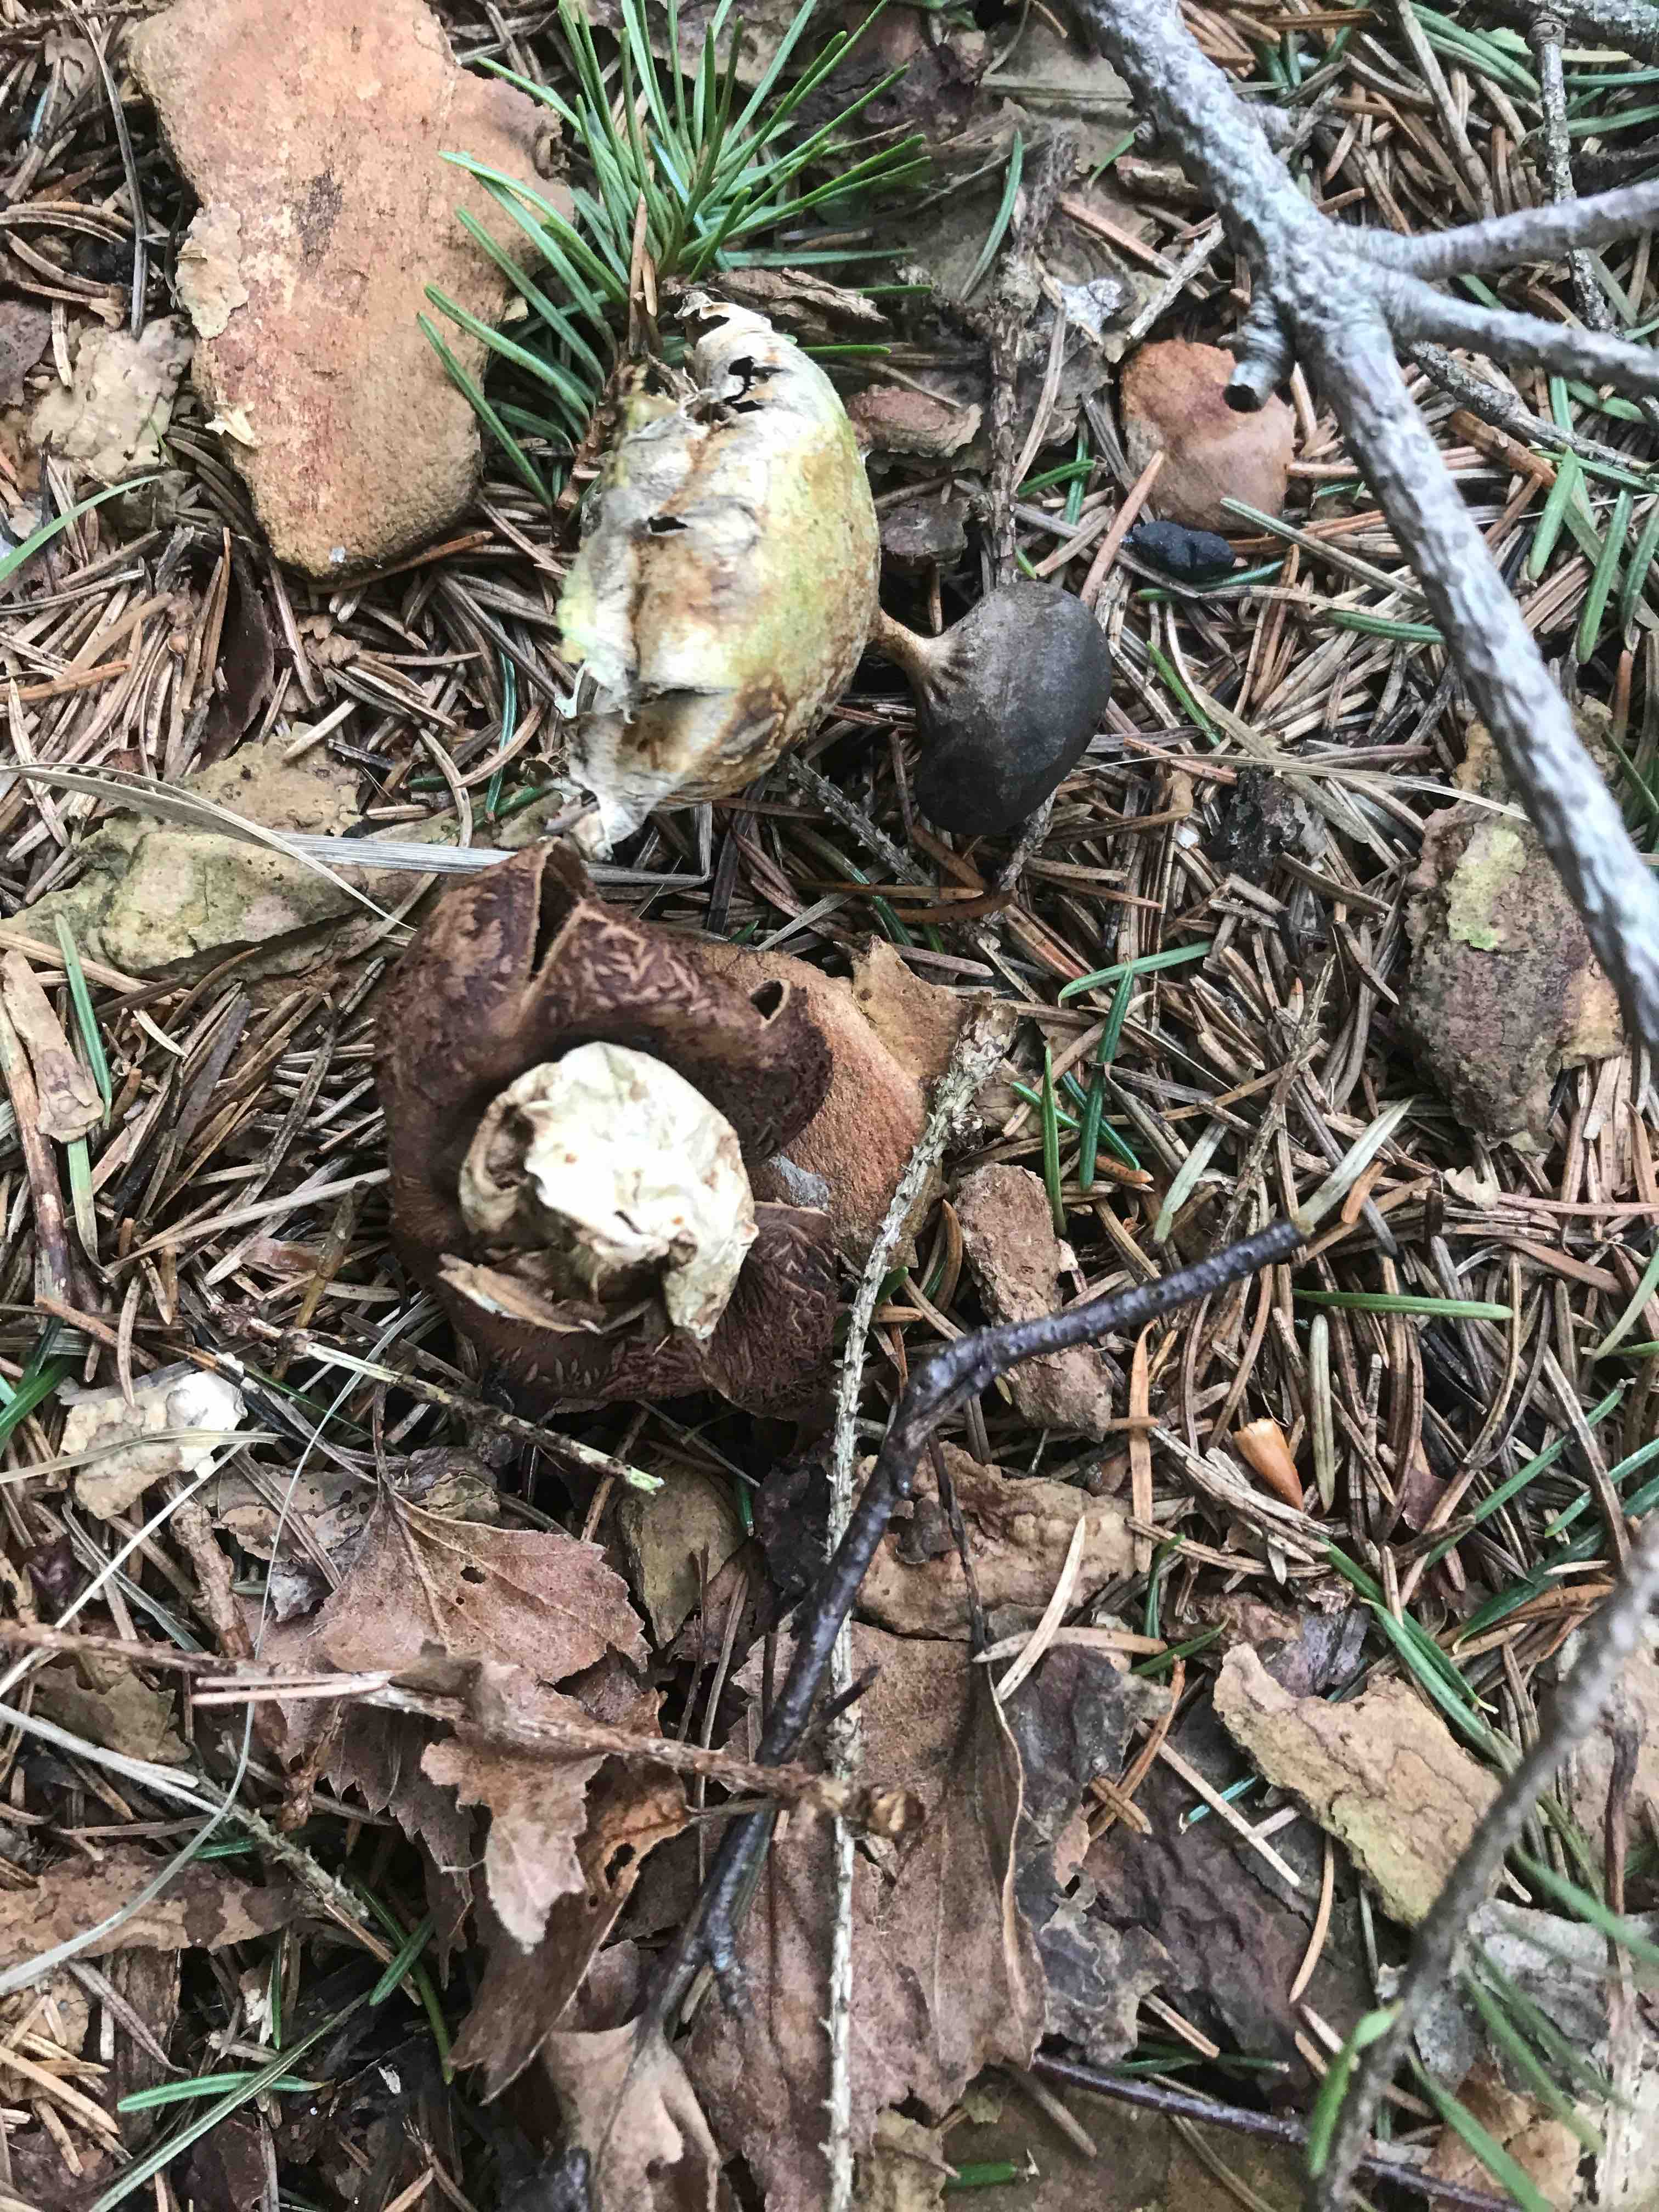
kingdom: Fungi
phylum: Basidiomycota
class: Agaricomycetes
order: Geastrales
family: Geastraceae
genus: Geastrum
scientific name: Geastrum pectinatum
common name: stilket stjernebold
